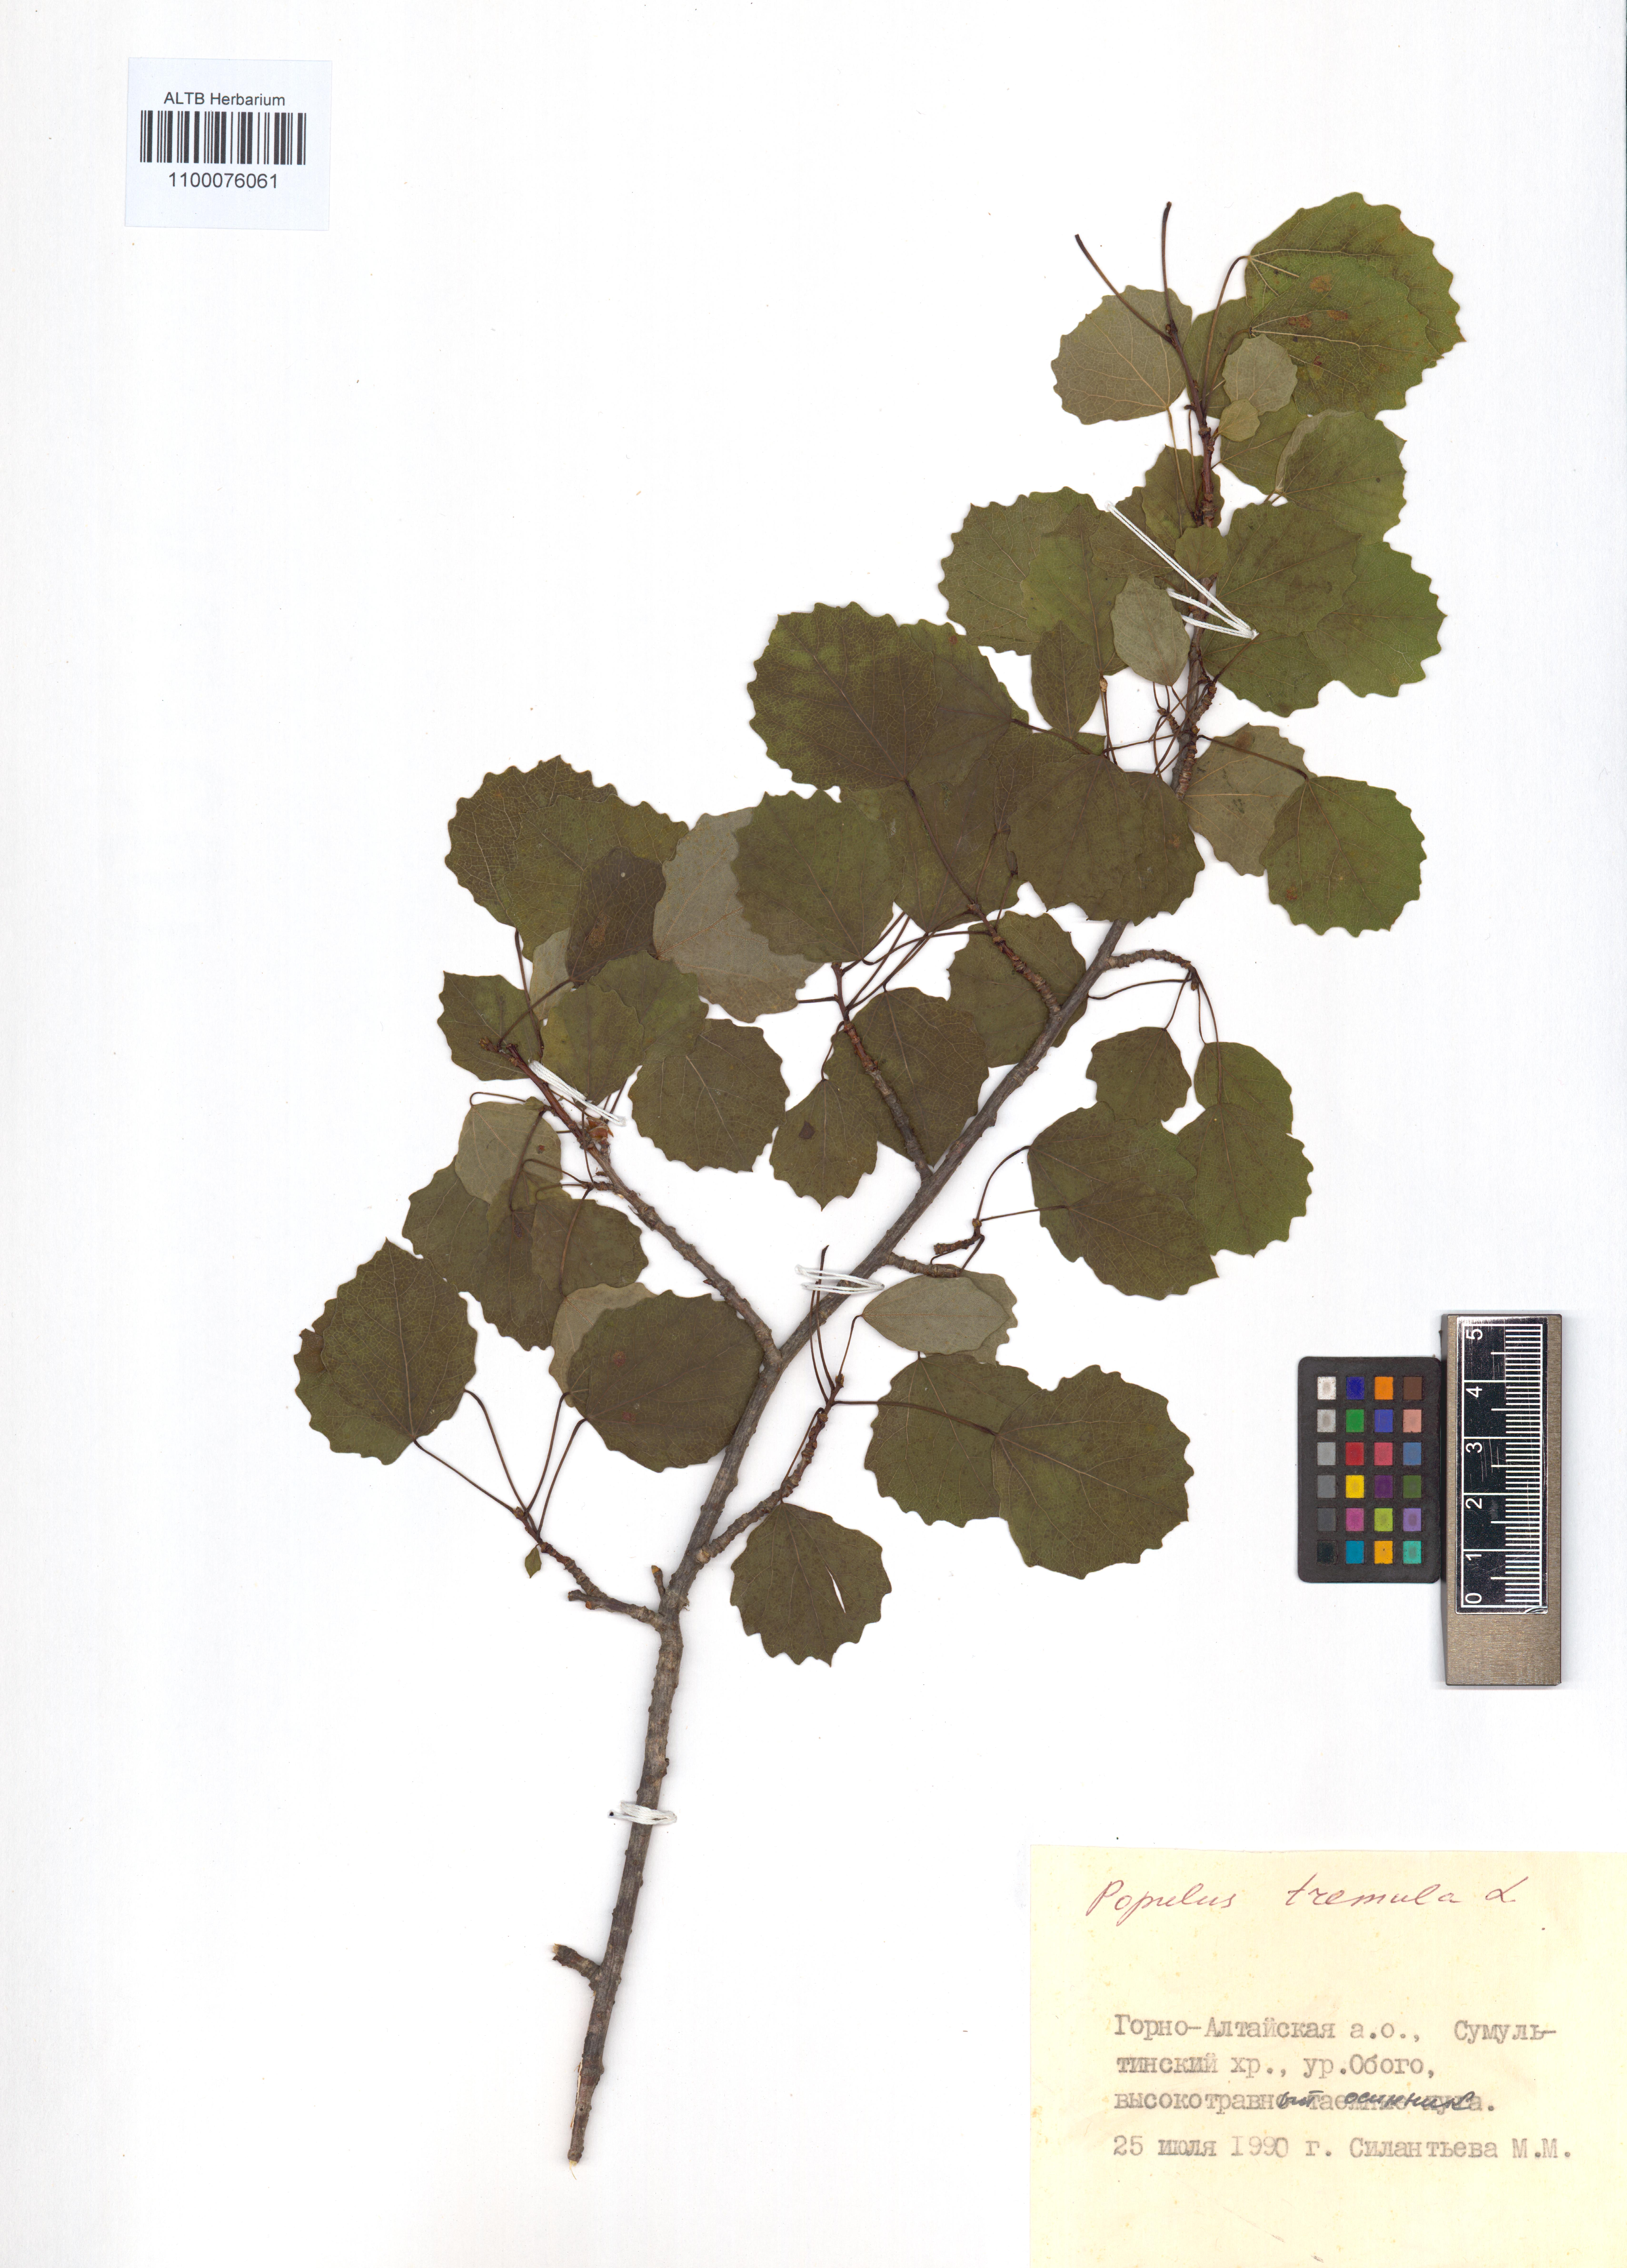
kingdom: Plantae
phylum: Tracheophyta
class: Magnoliopsida
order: Malpighiales
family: Salicaceae
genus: Populus
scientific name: Populus tremula
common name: European aspen
